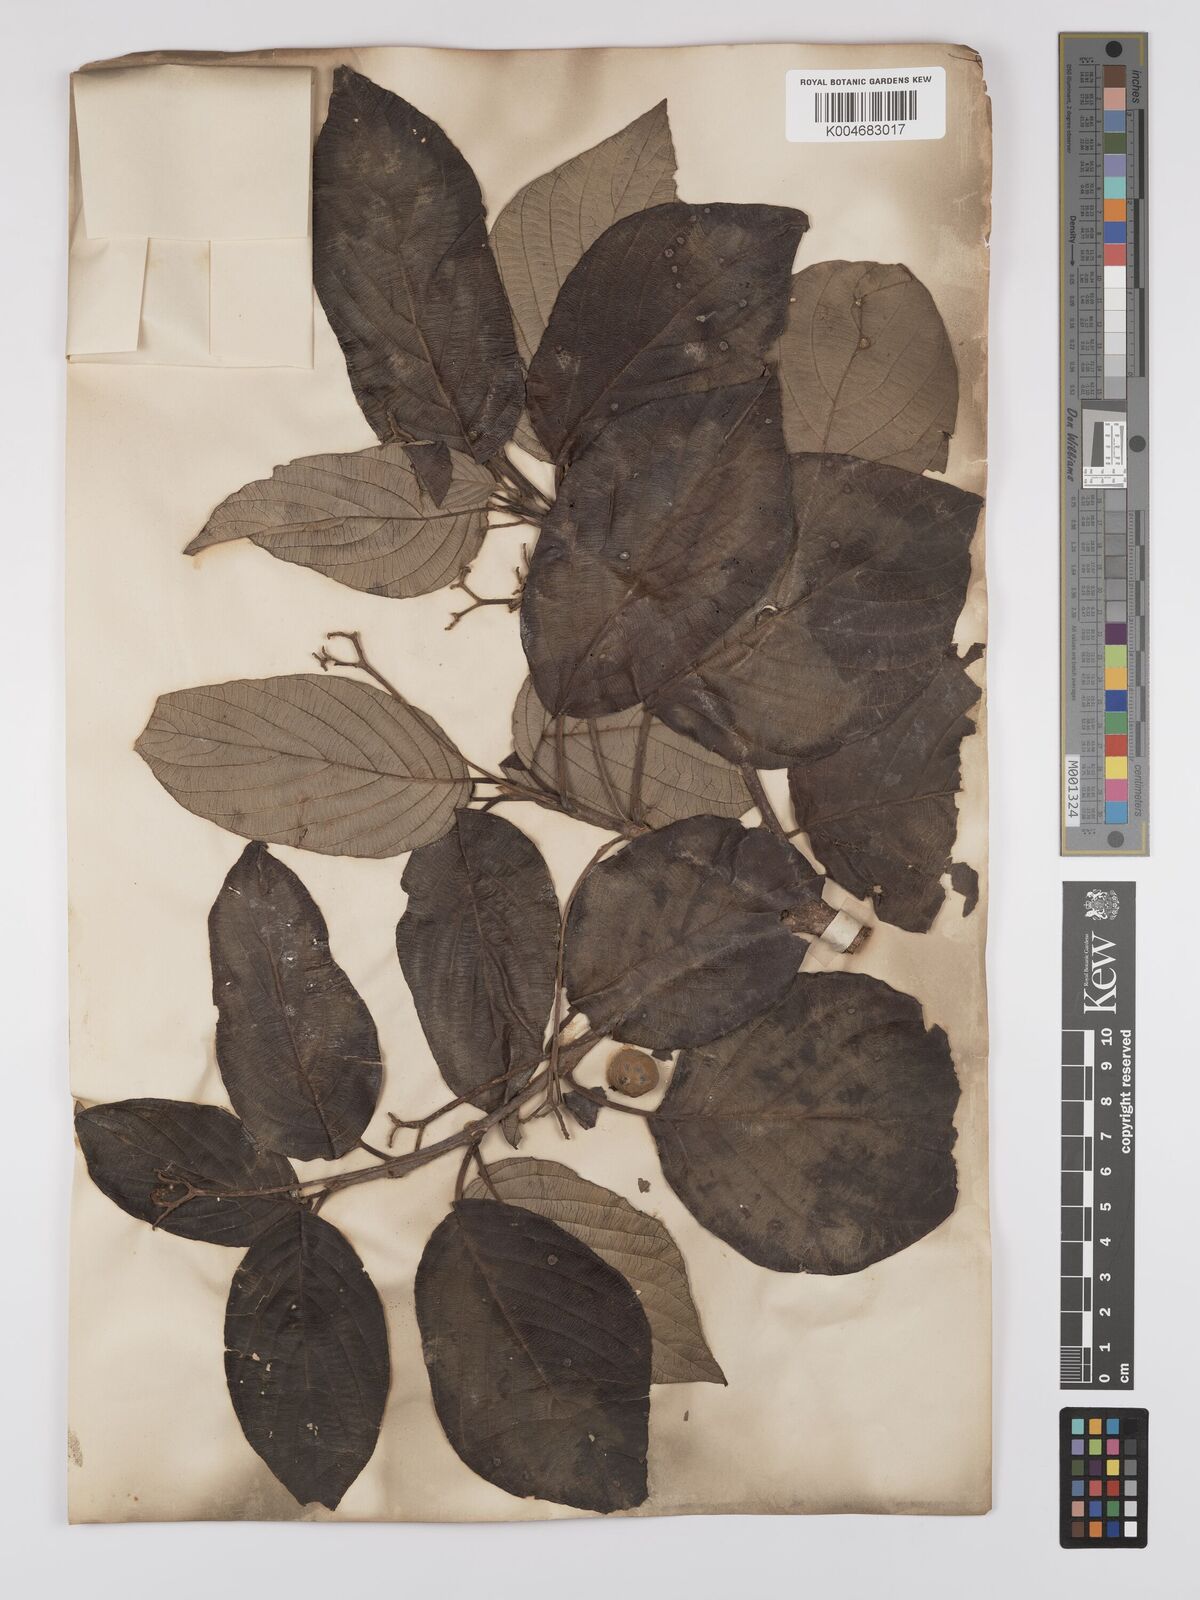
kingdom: Plantae
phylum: Tracheophyta
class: Magnoliopsida
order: Gentianales
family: Rubiaceae
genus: Guettarda
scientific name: Guettarda argentea
